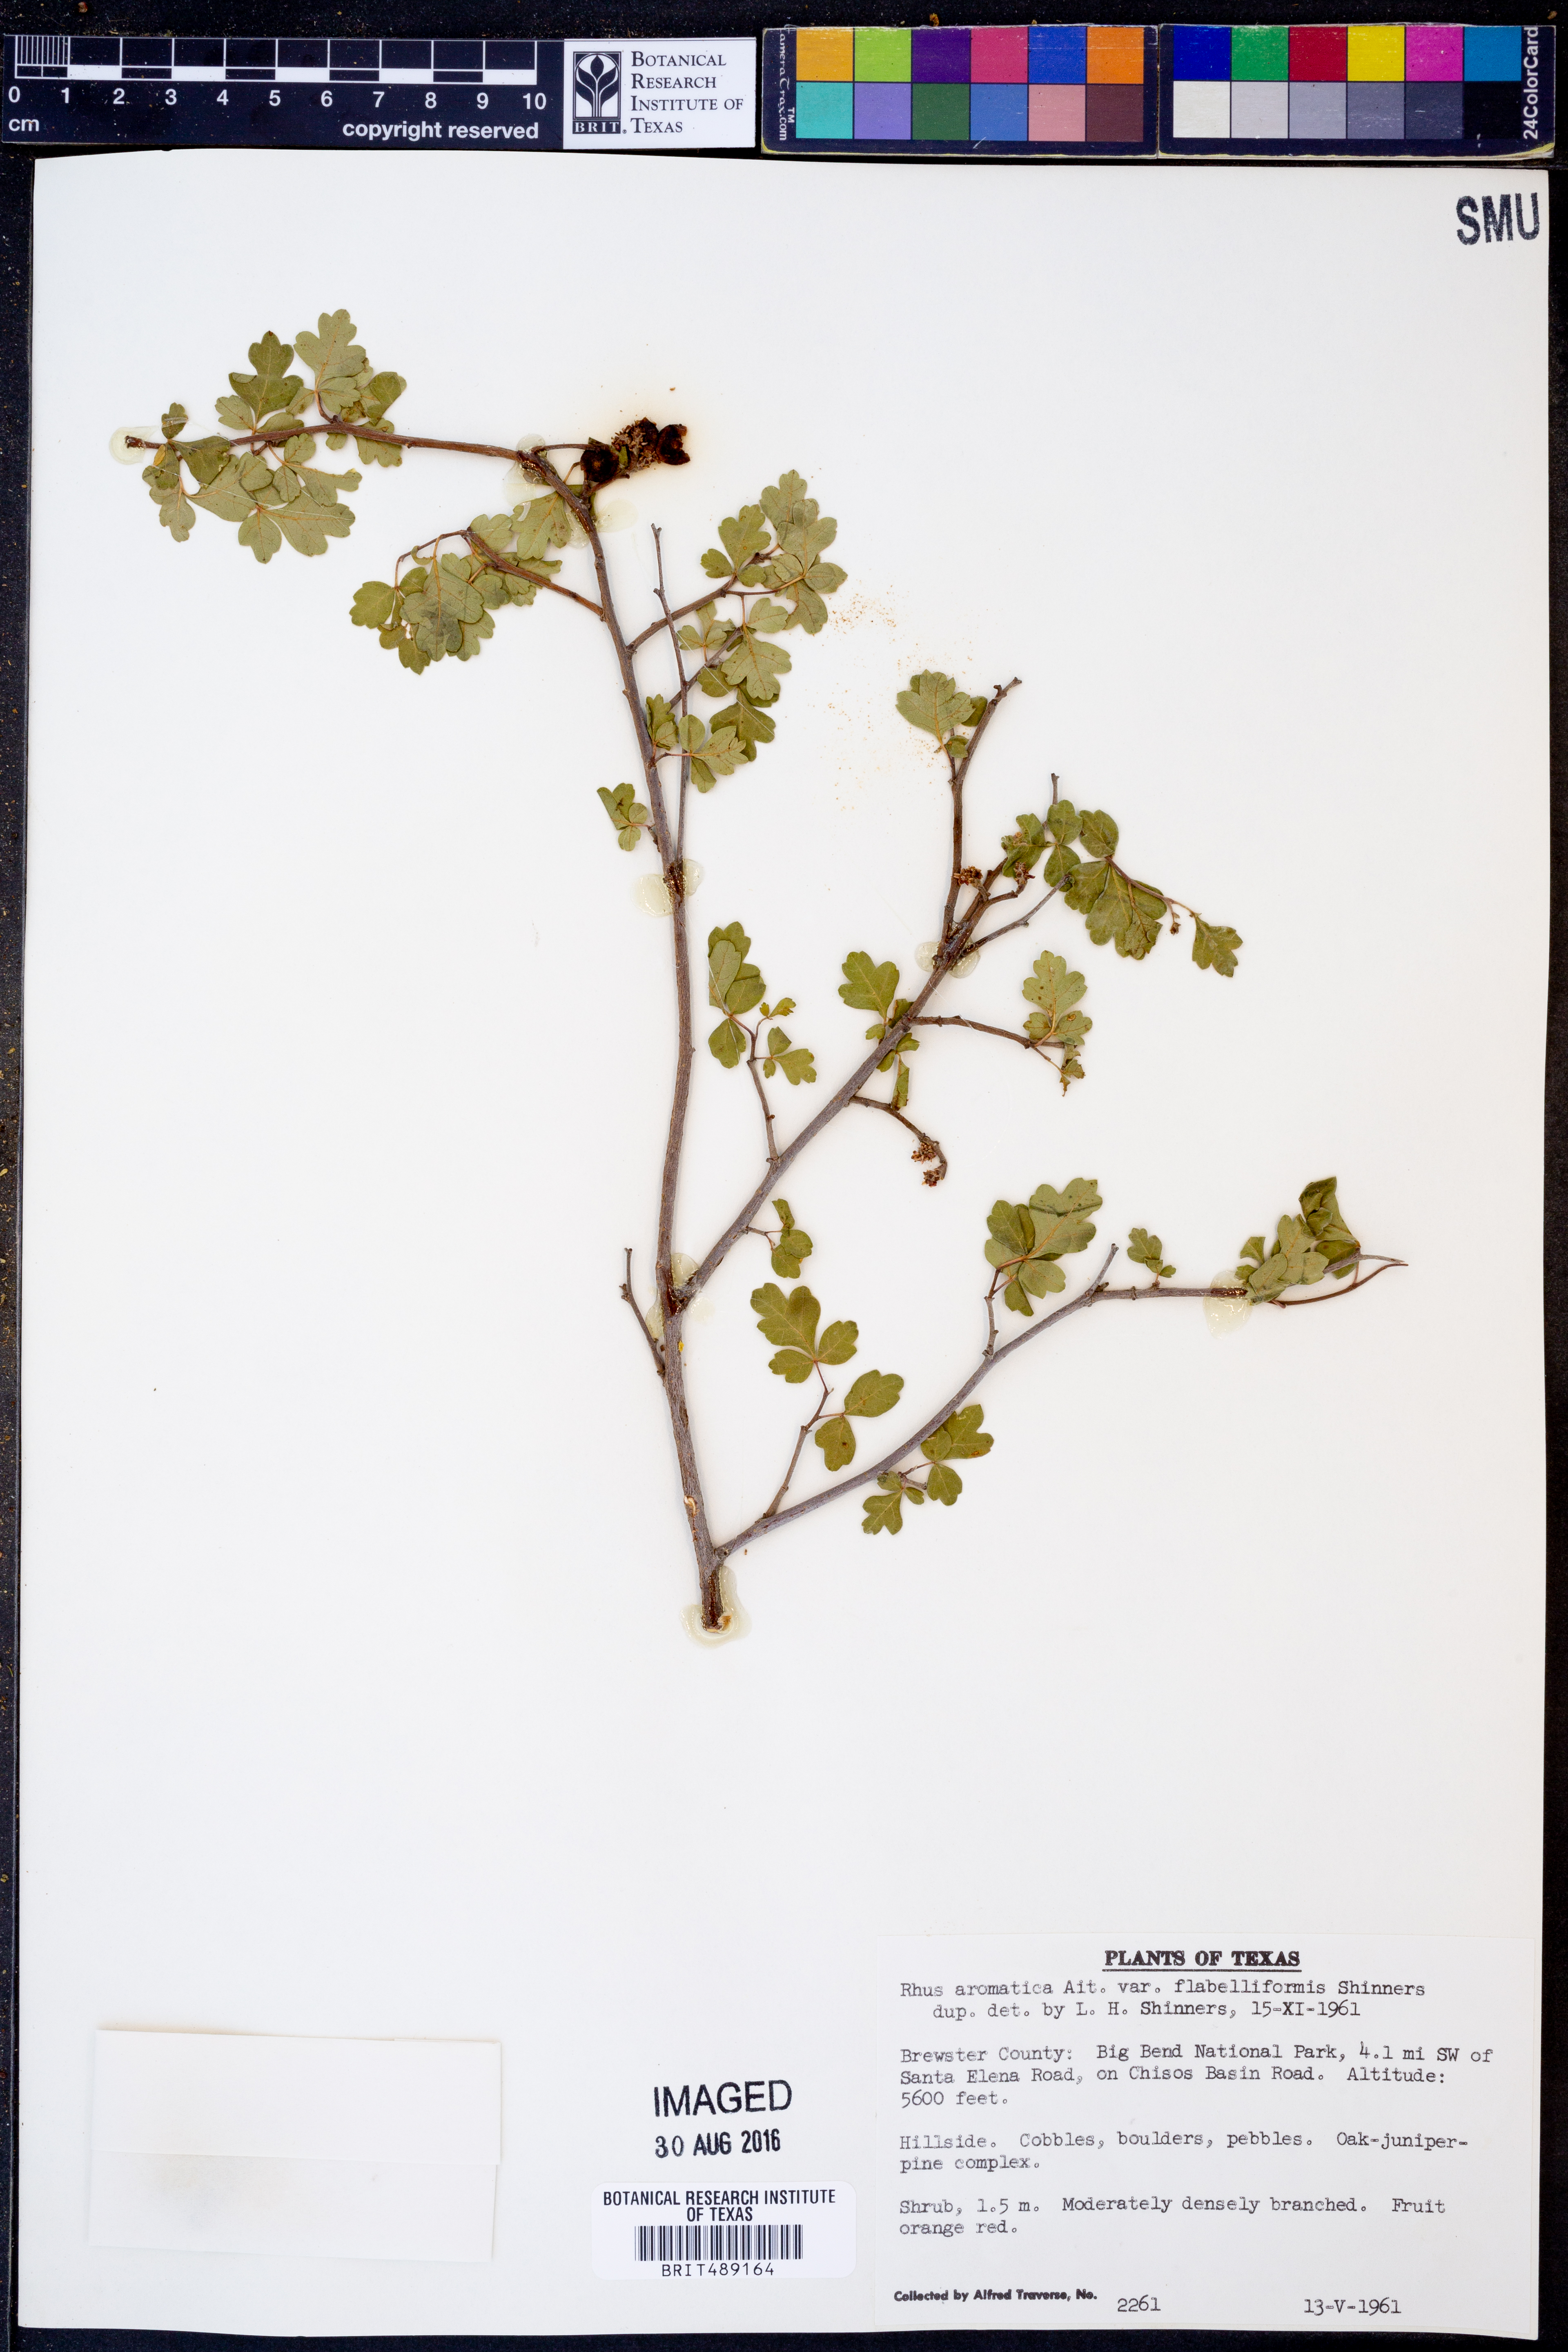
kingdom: Plantae
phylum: Tracheophyta
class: Magnoliopsida
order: Sapindales
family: Anacardiaceae
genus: Rhus
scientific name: Rhus trilobata
